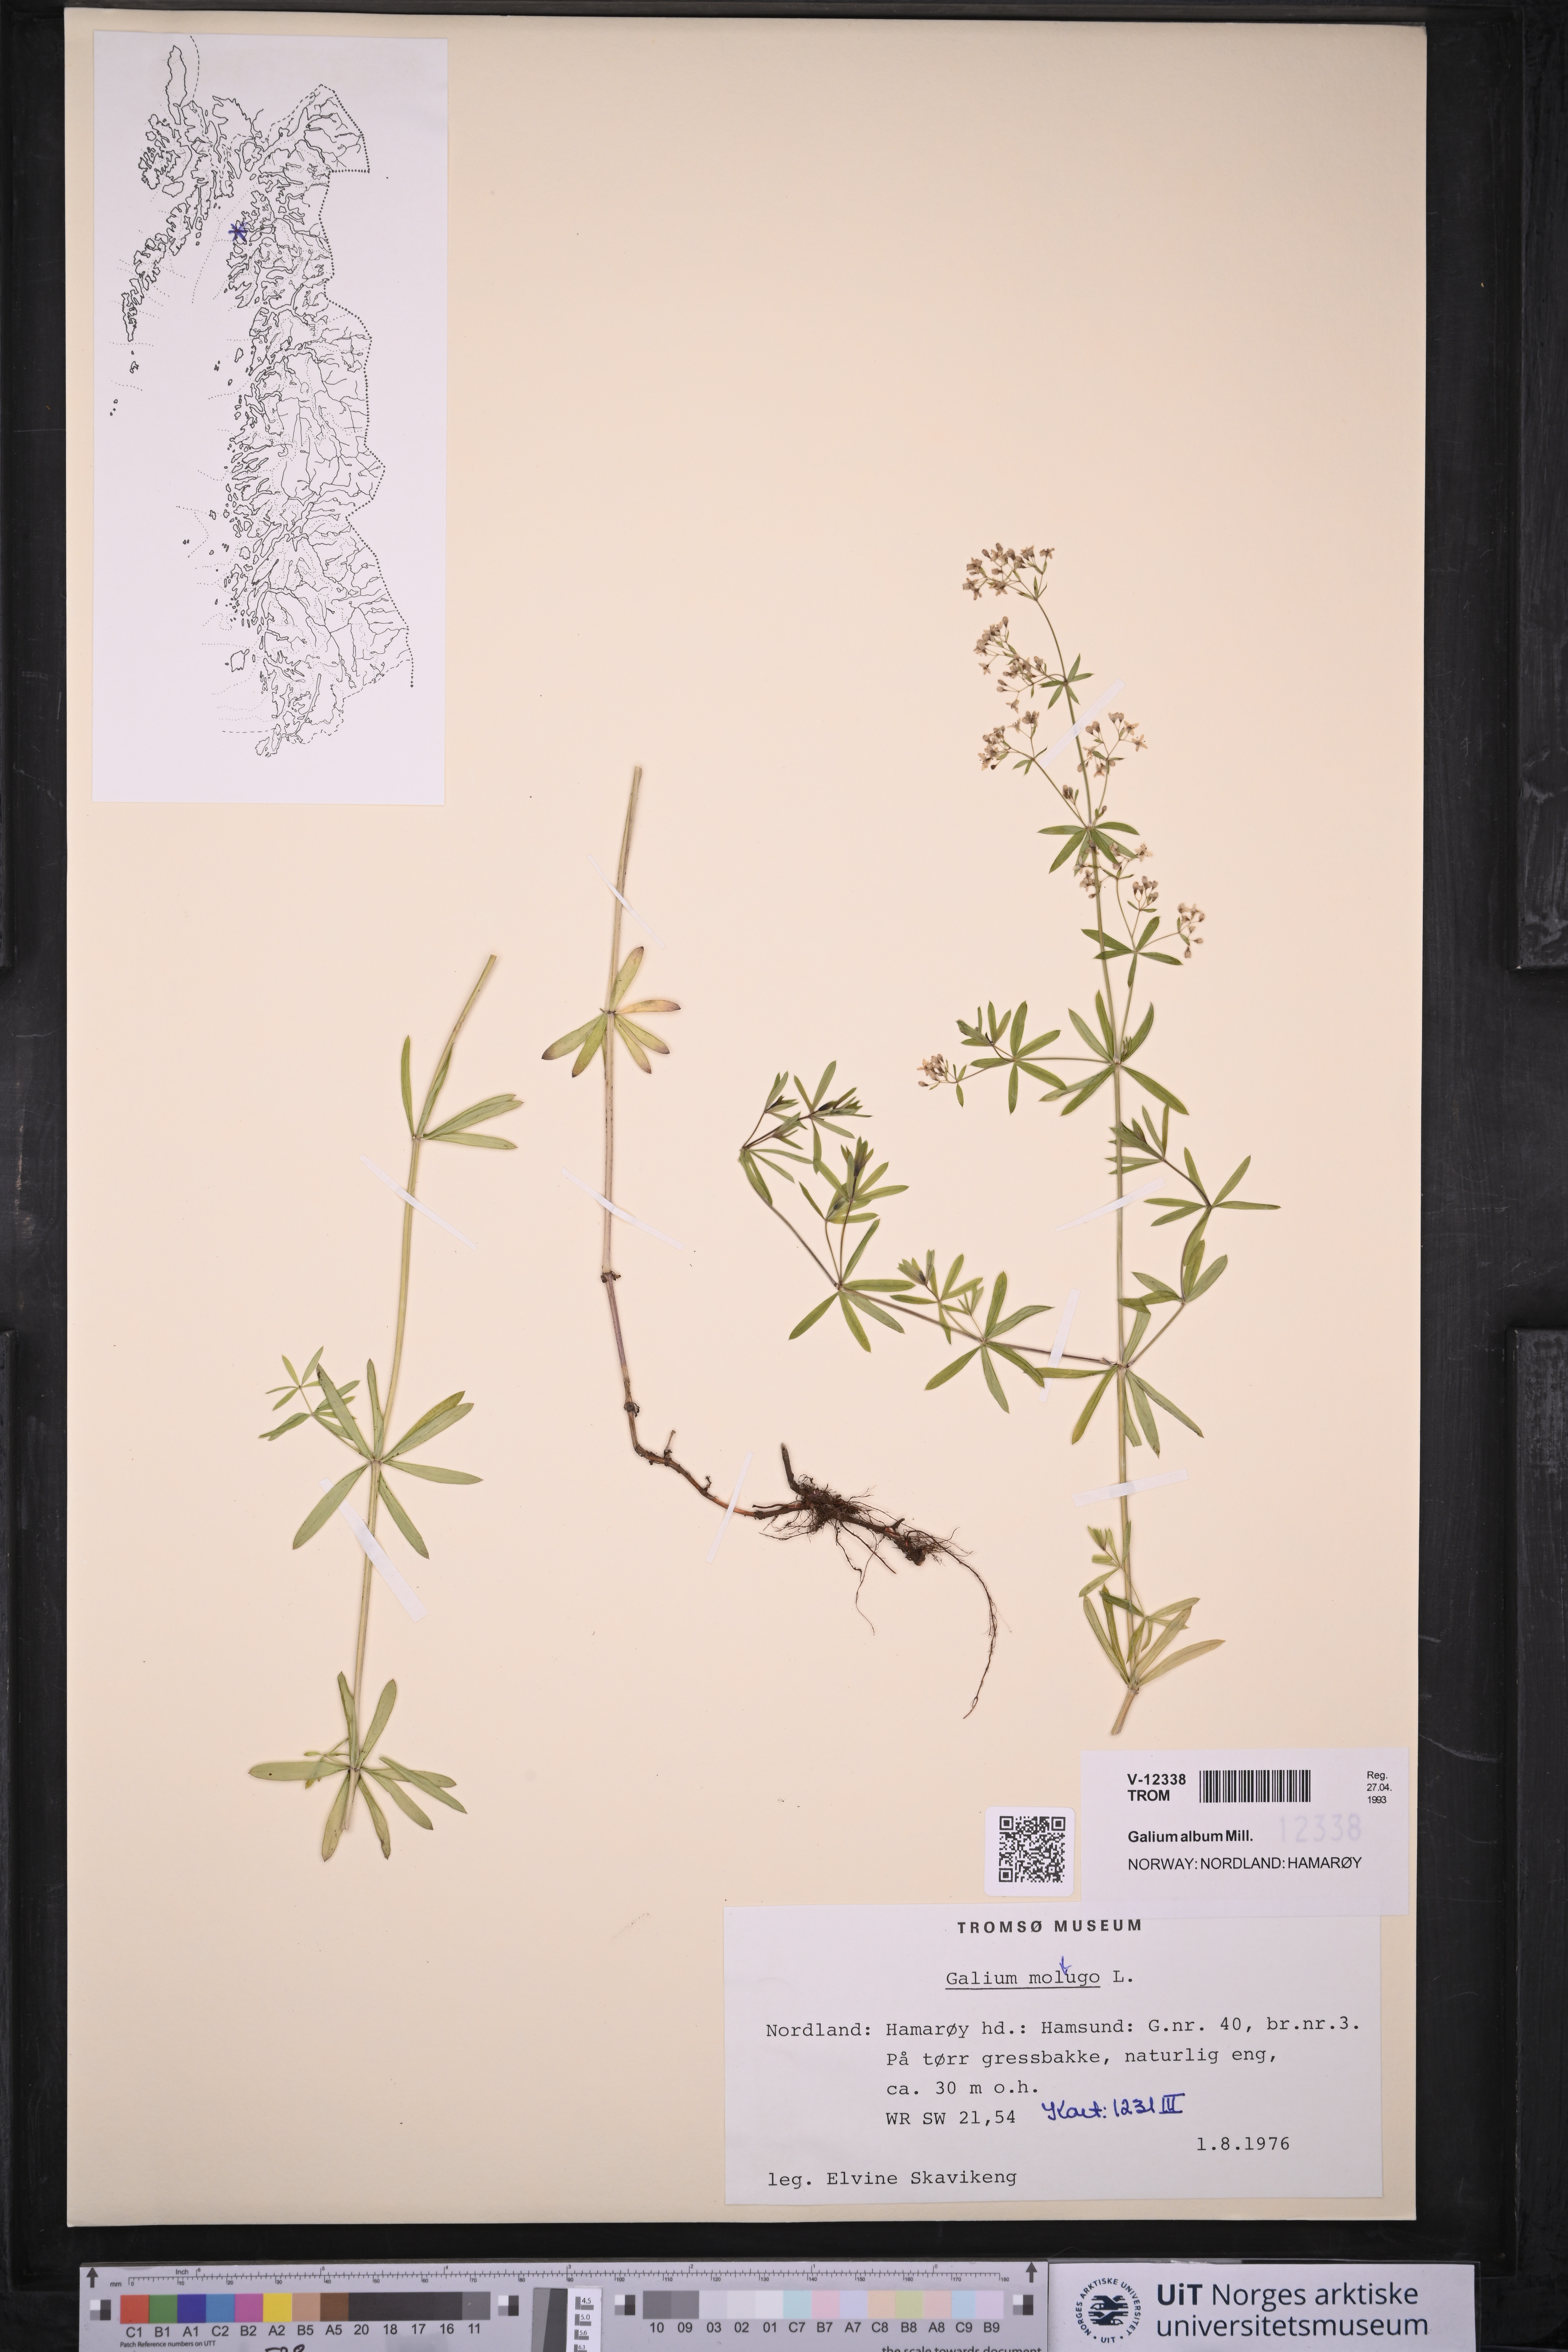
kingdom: Plantae
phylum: Tracheophyta
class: Magnoliopsida
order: Gentianales
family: Rubiaceae
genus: Galium
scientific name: Galium
